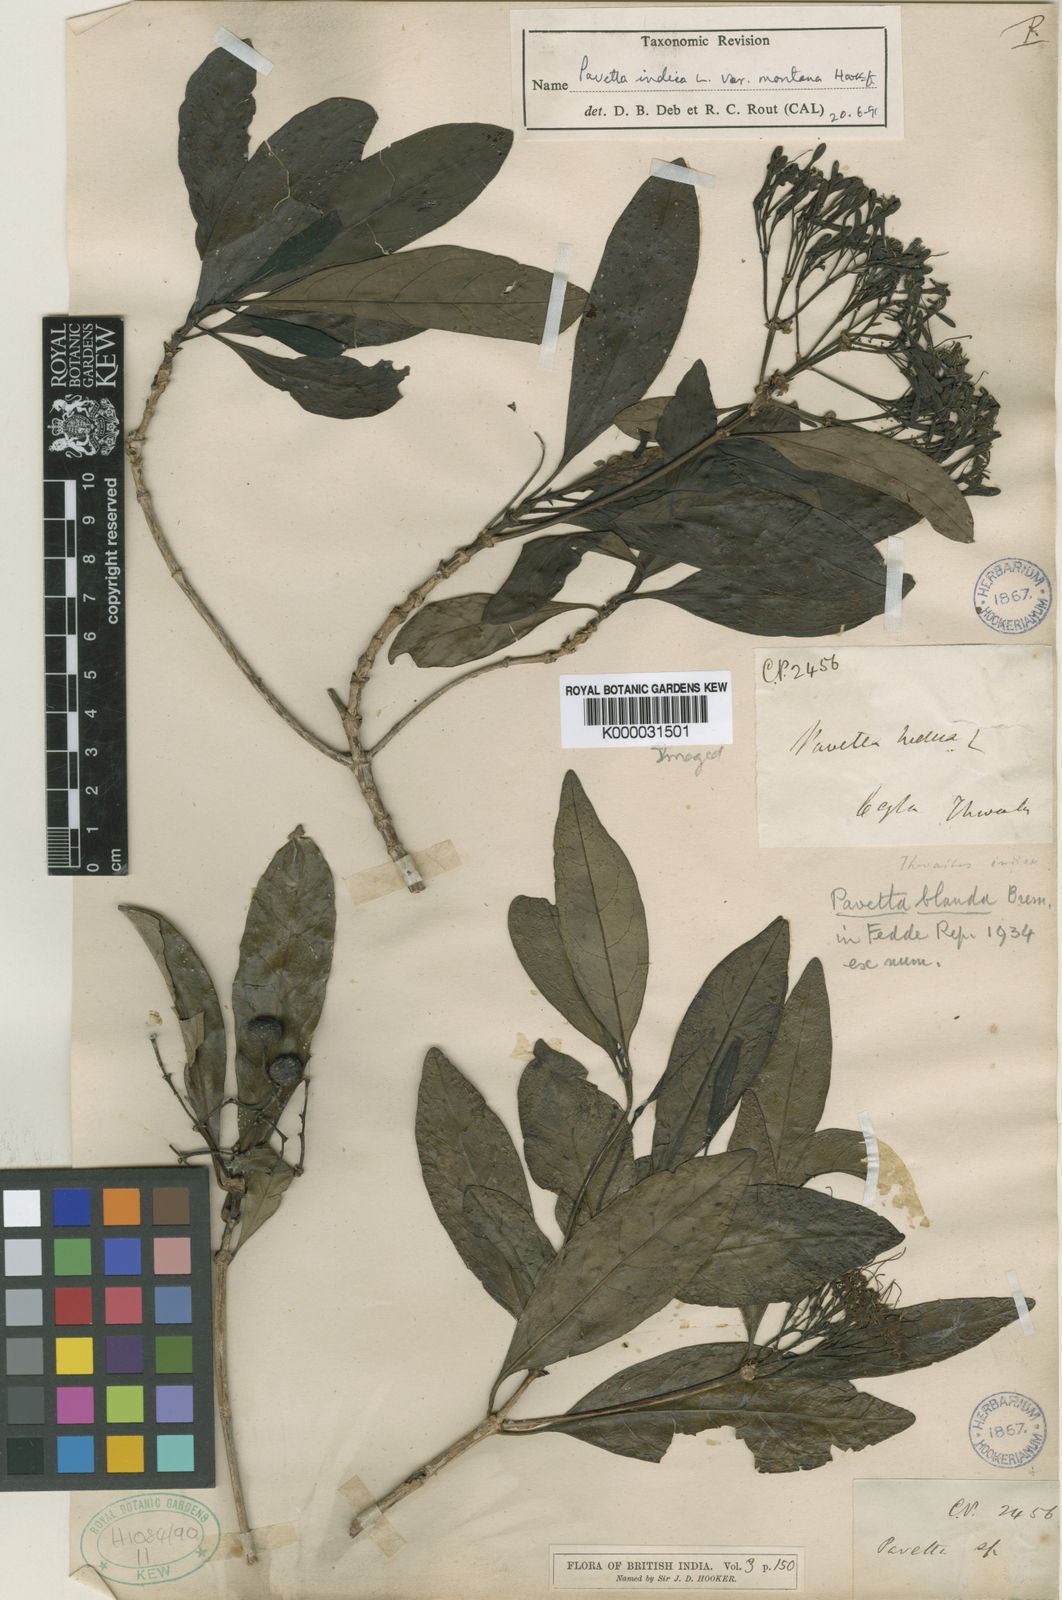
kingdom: Plantae
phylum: Tracheophyta
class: Magnoliopsida
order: Gentianales
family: Rubiaceae
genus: Pavetta
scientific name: Pavetta blanda
